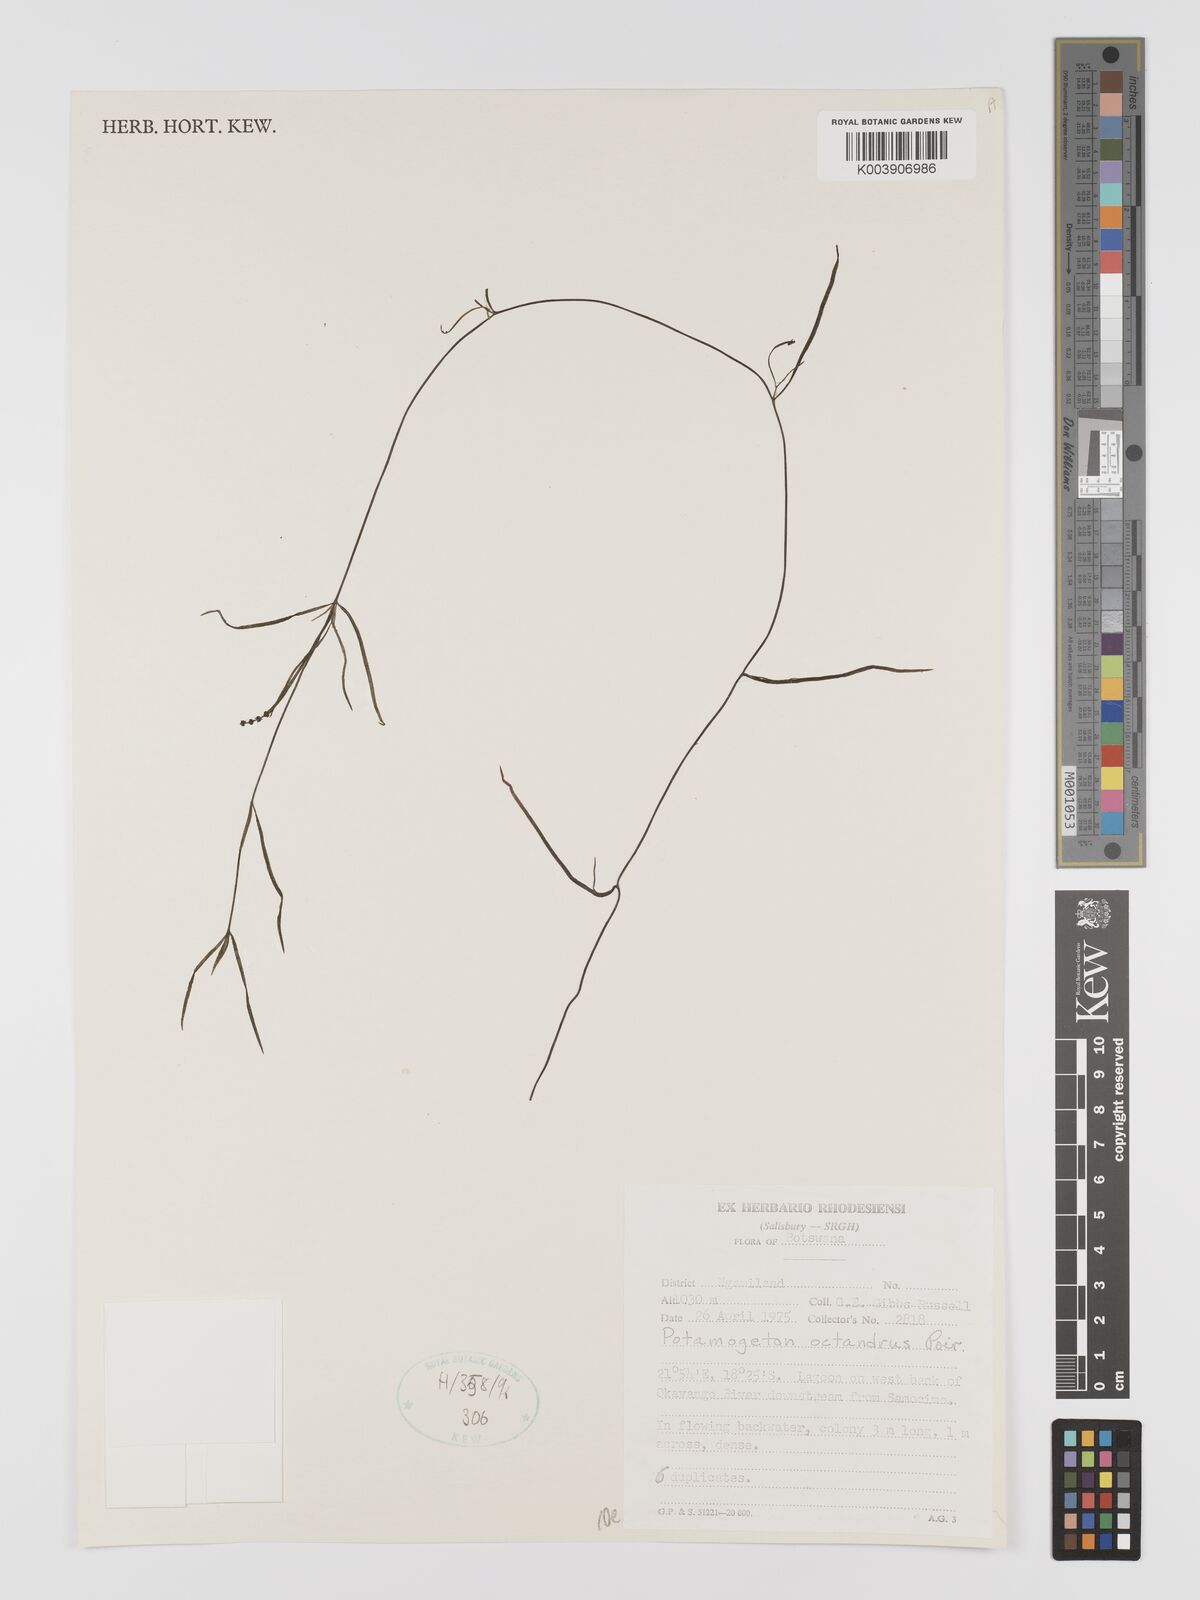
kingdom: Plantae
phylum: Tracheophyta
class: Liliopsida
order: Alismatales
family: Potamogetonaceae
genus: Potamogeton
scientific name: Potamogeton octandrus
